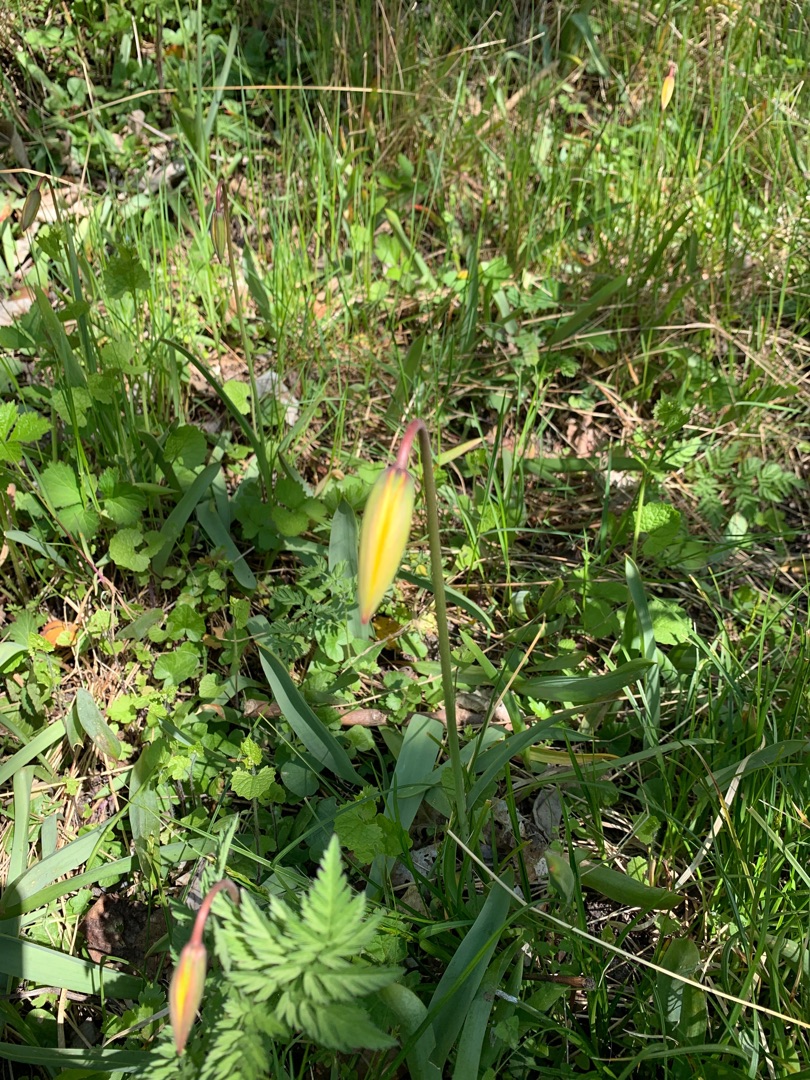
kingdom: Plantae
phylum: Tracheophyta
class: Liliopsida
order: Liliales
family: Liliaceae
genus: Tulipa
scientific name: Tulipa sylvestris
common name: Vild tulipan
